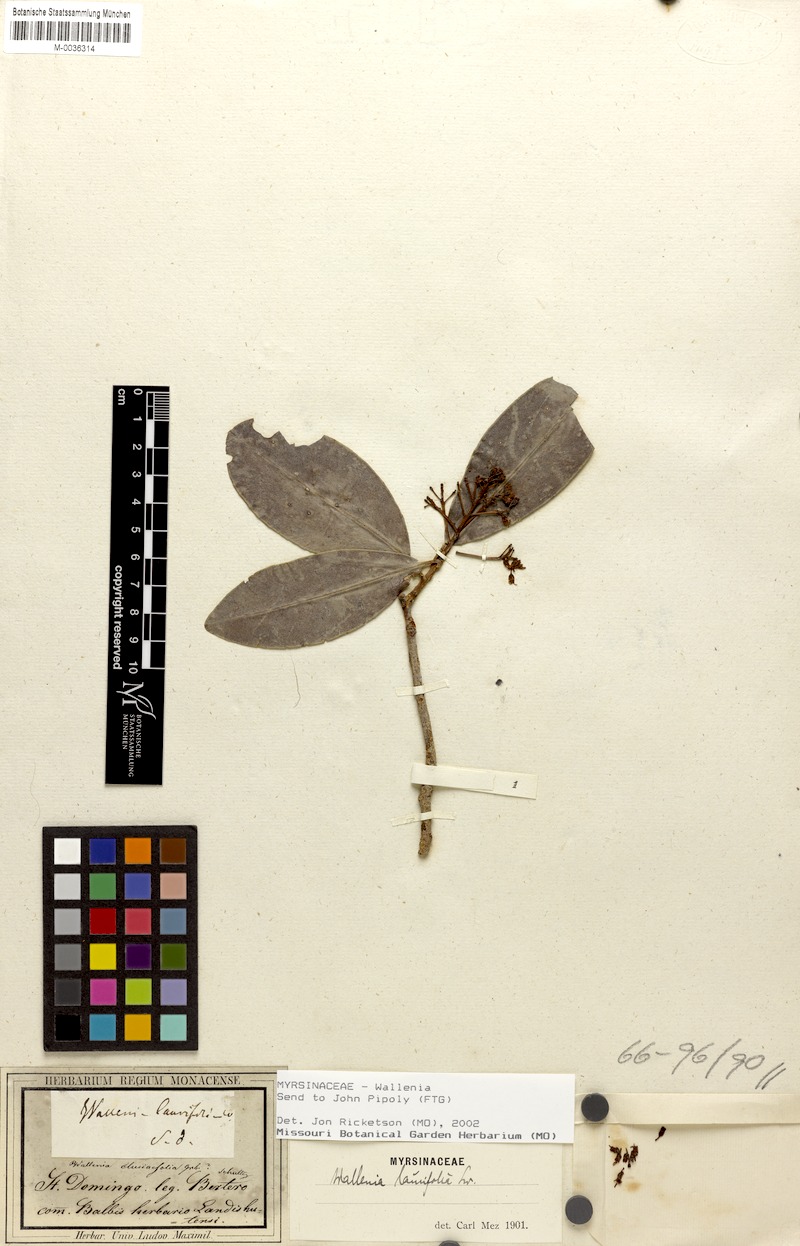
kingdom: Plantae
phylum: Tracheophyta
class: Magnoliopsida
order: Ericales
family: Primulaceae
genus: Petesiodes
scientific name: Petesiodes clusiifolium
